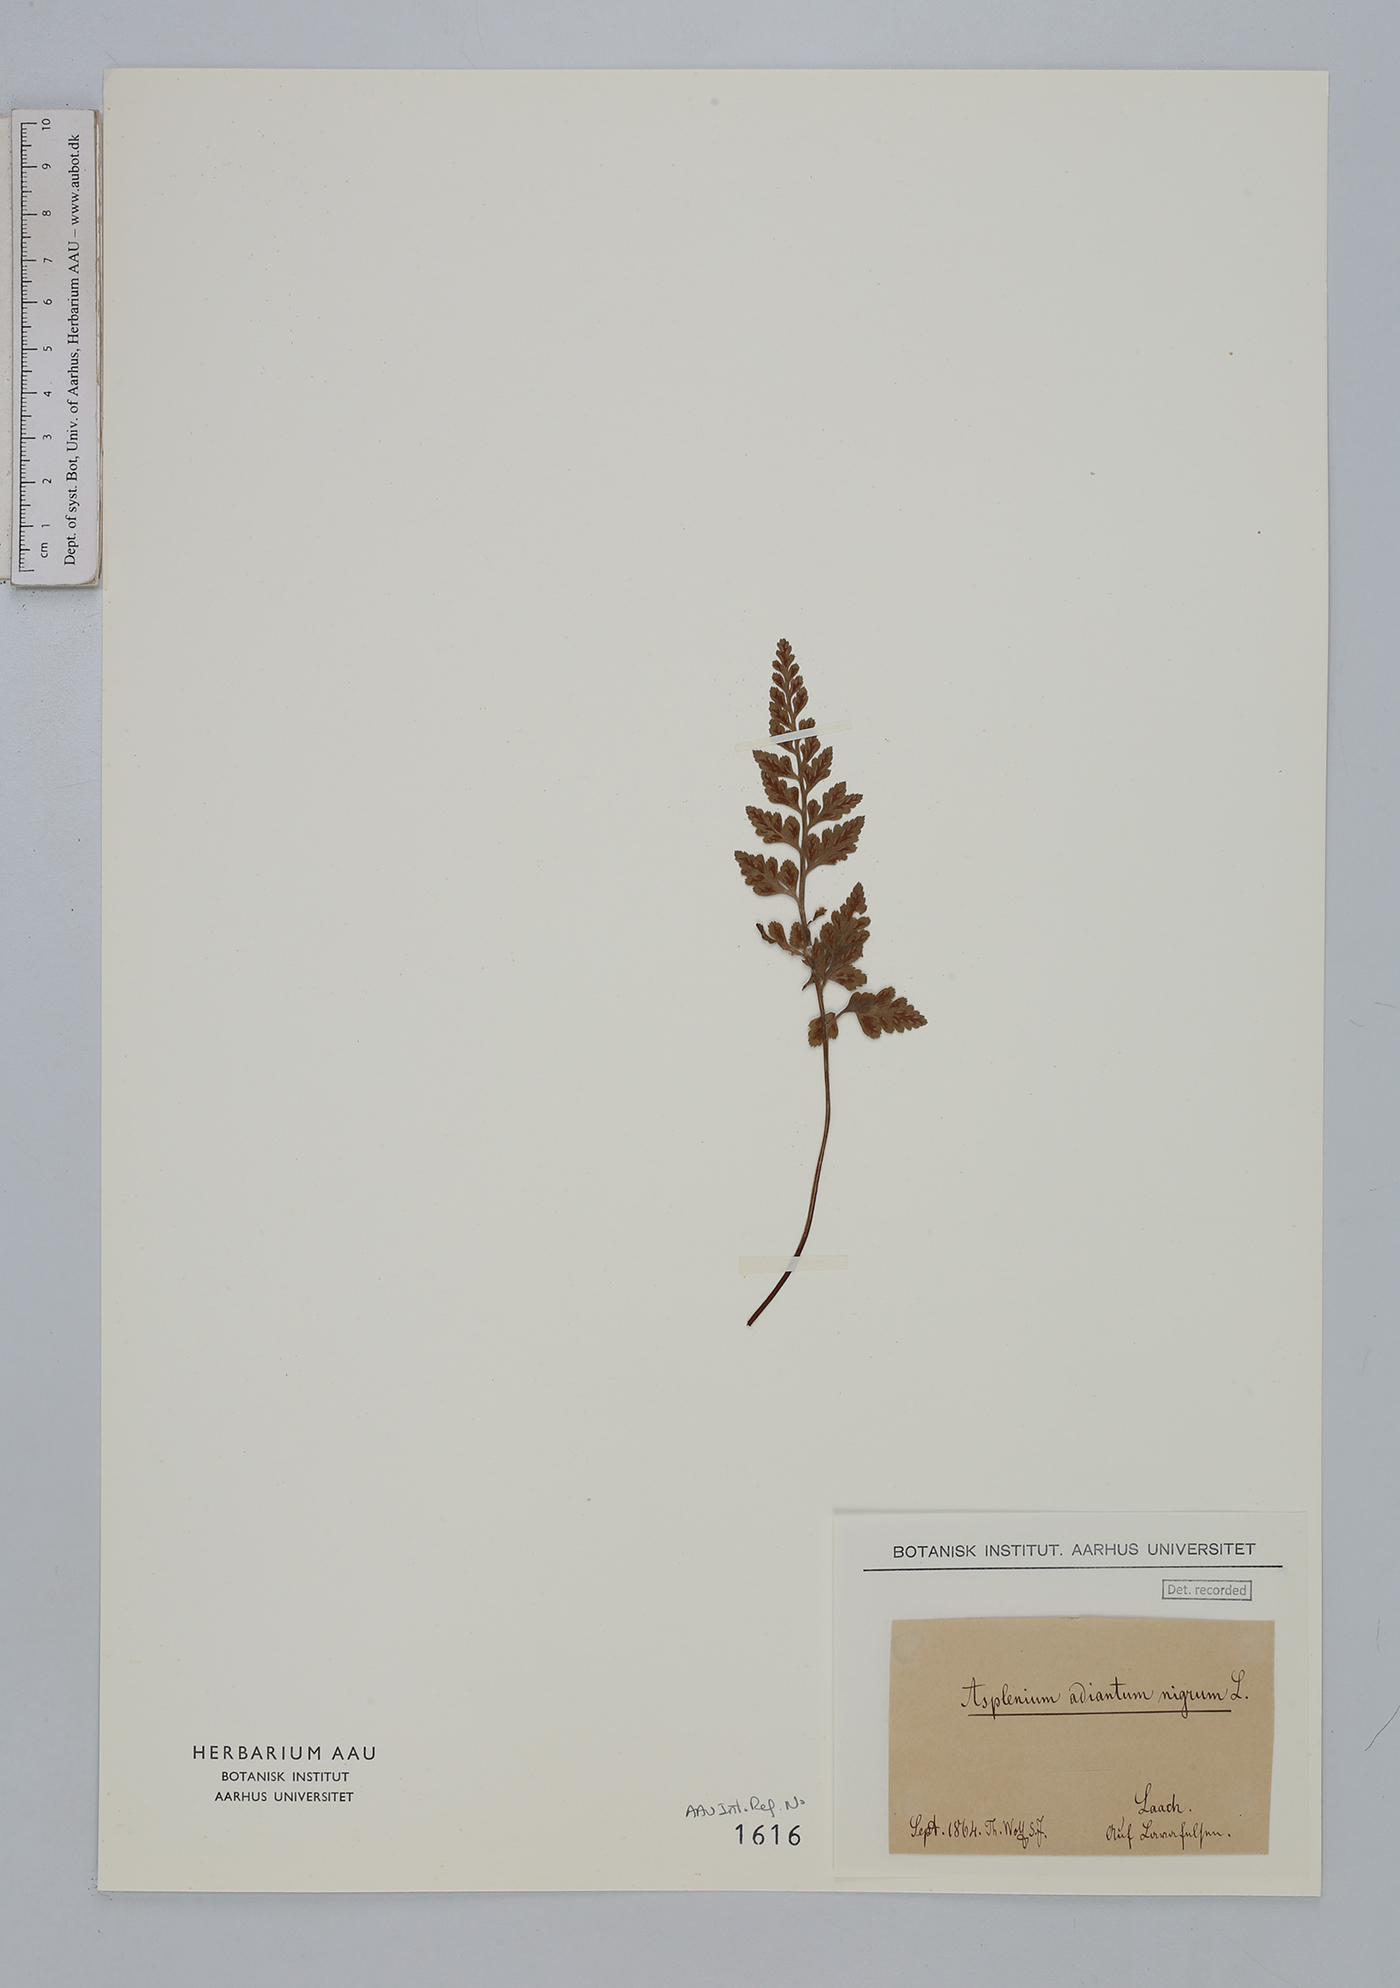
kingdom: Plantae
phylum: Tracheophyta
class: Polypodiopsida
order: Polypodiales
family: Aspleniaceae
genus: Asplenium
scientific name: Asplenium adiantum-nigrum
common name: Black spleenwort
